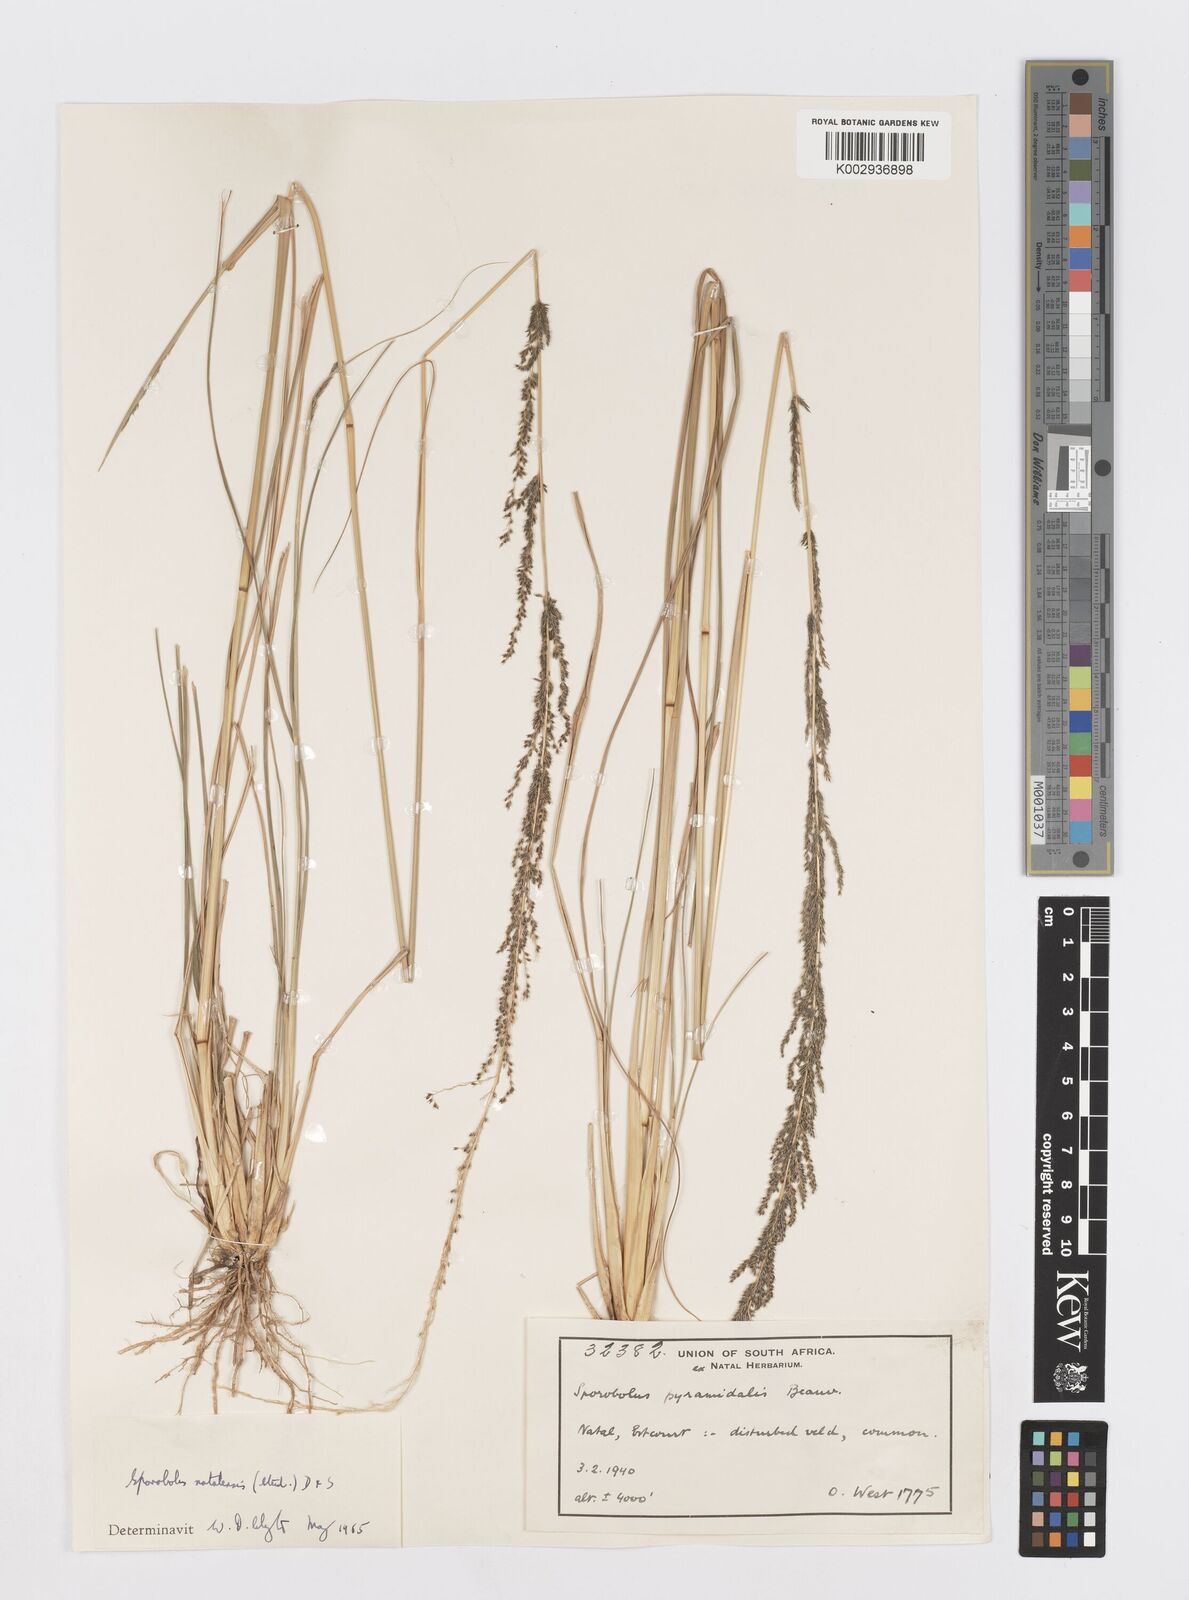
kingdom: Plantae
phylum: Tracheophyta
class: Liliopsida
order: Poales
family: Poaceae
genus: Sporobolus
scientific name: Sporobolus natalensis
